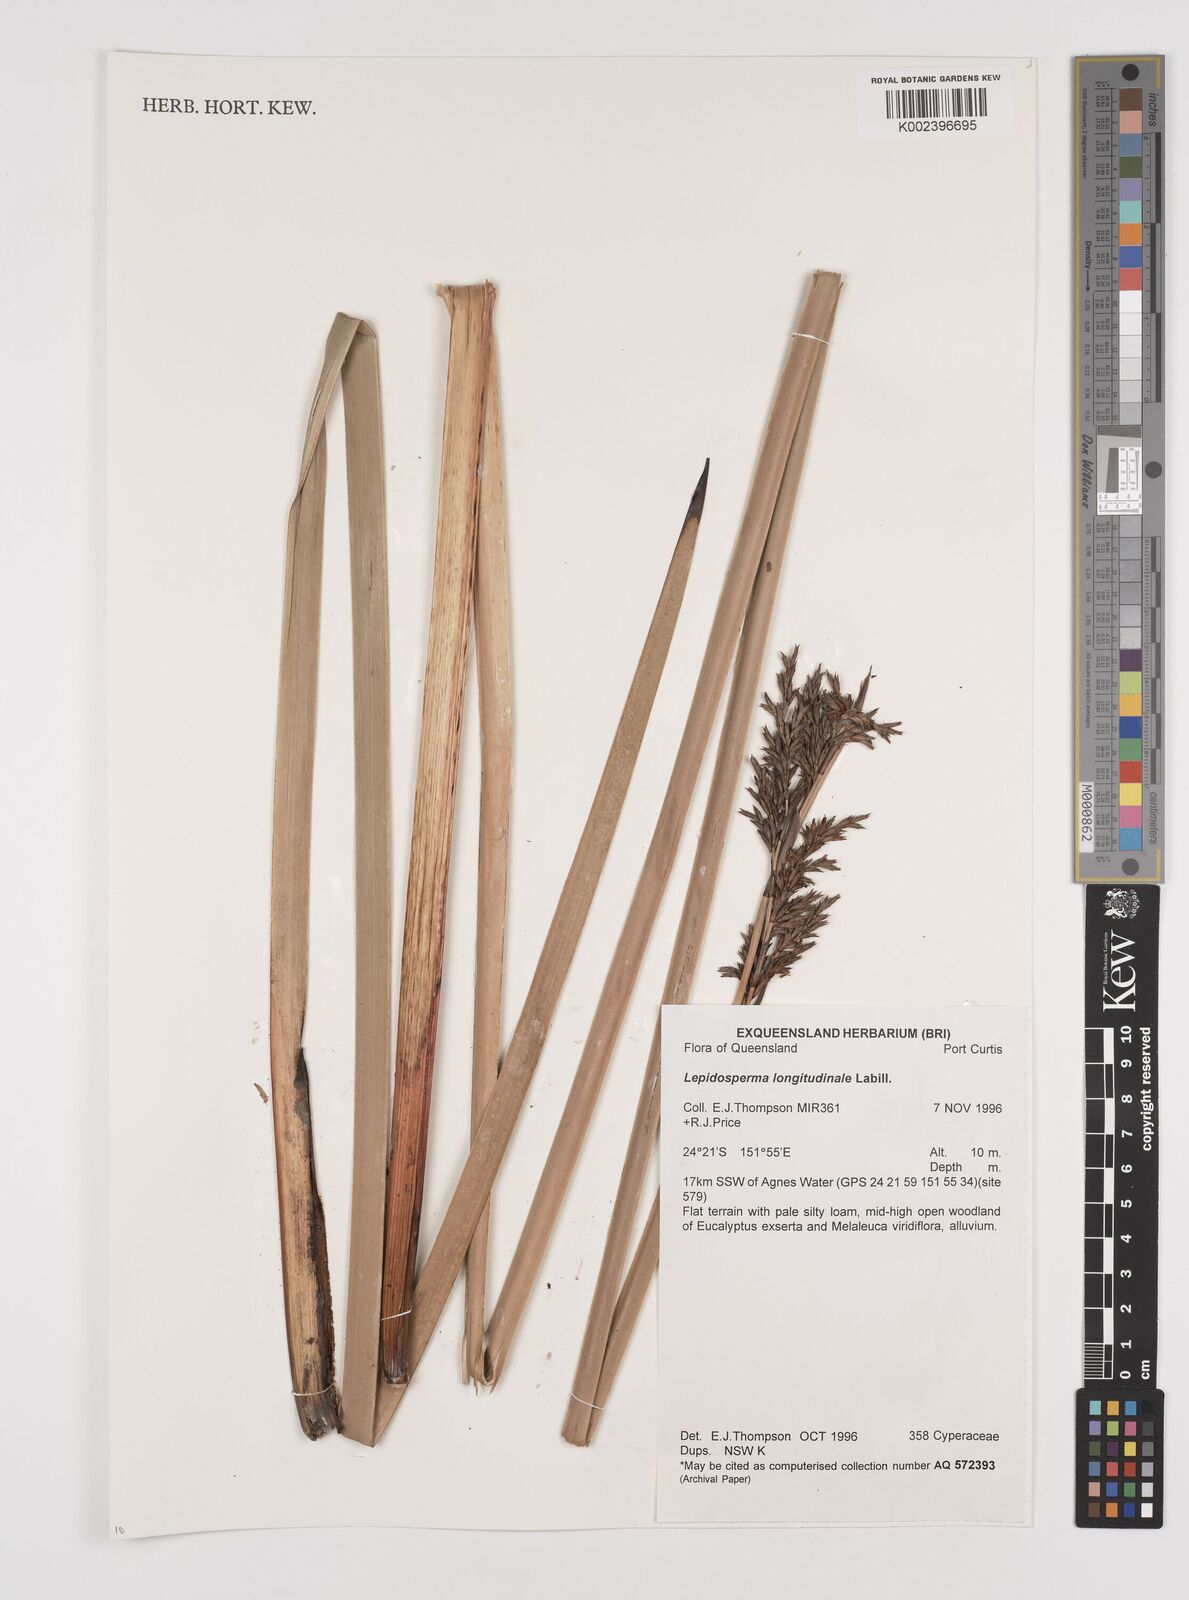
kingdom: Plantae
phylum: Tracheophyta
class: Liliopsida
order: Poales
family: Cyperaceae
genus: Lepidosperma
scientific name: Lepidosperma longitudinale
